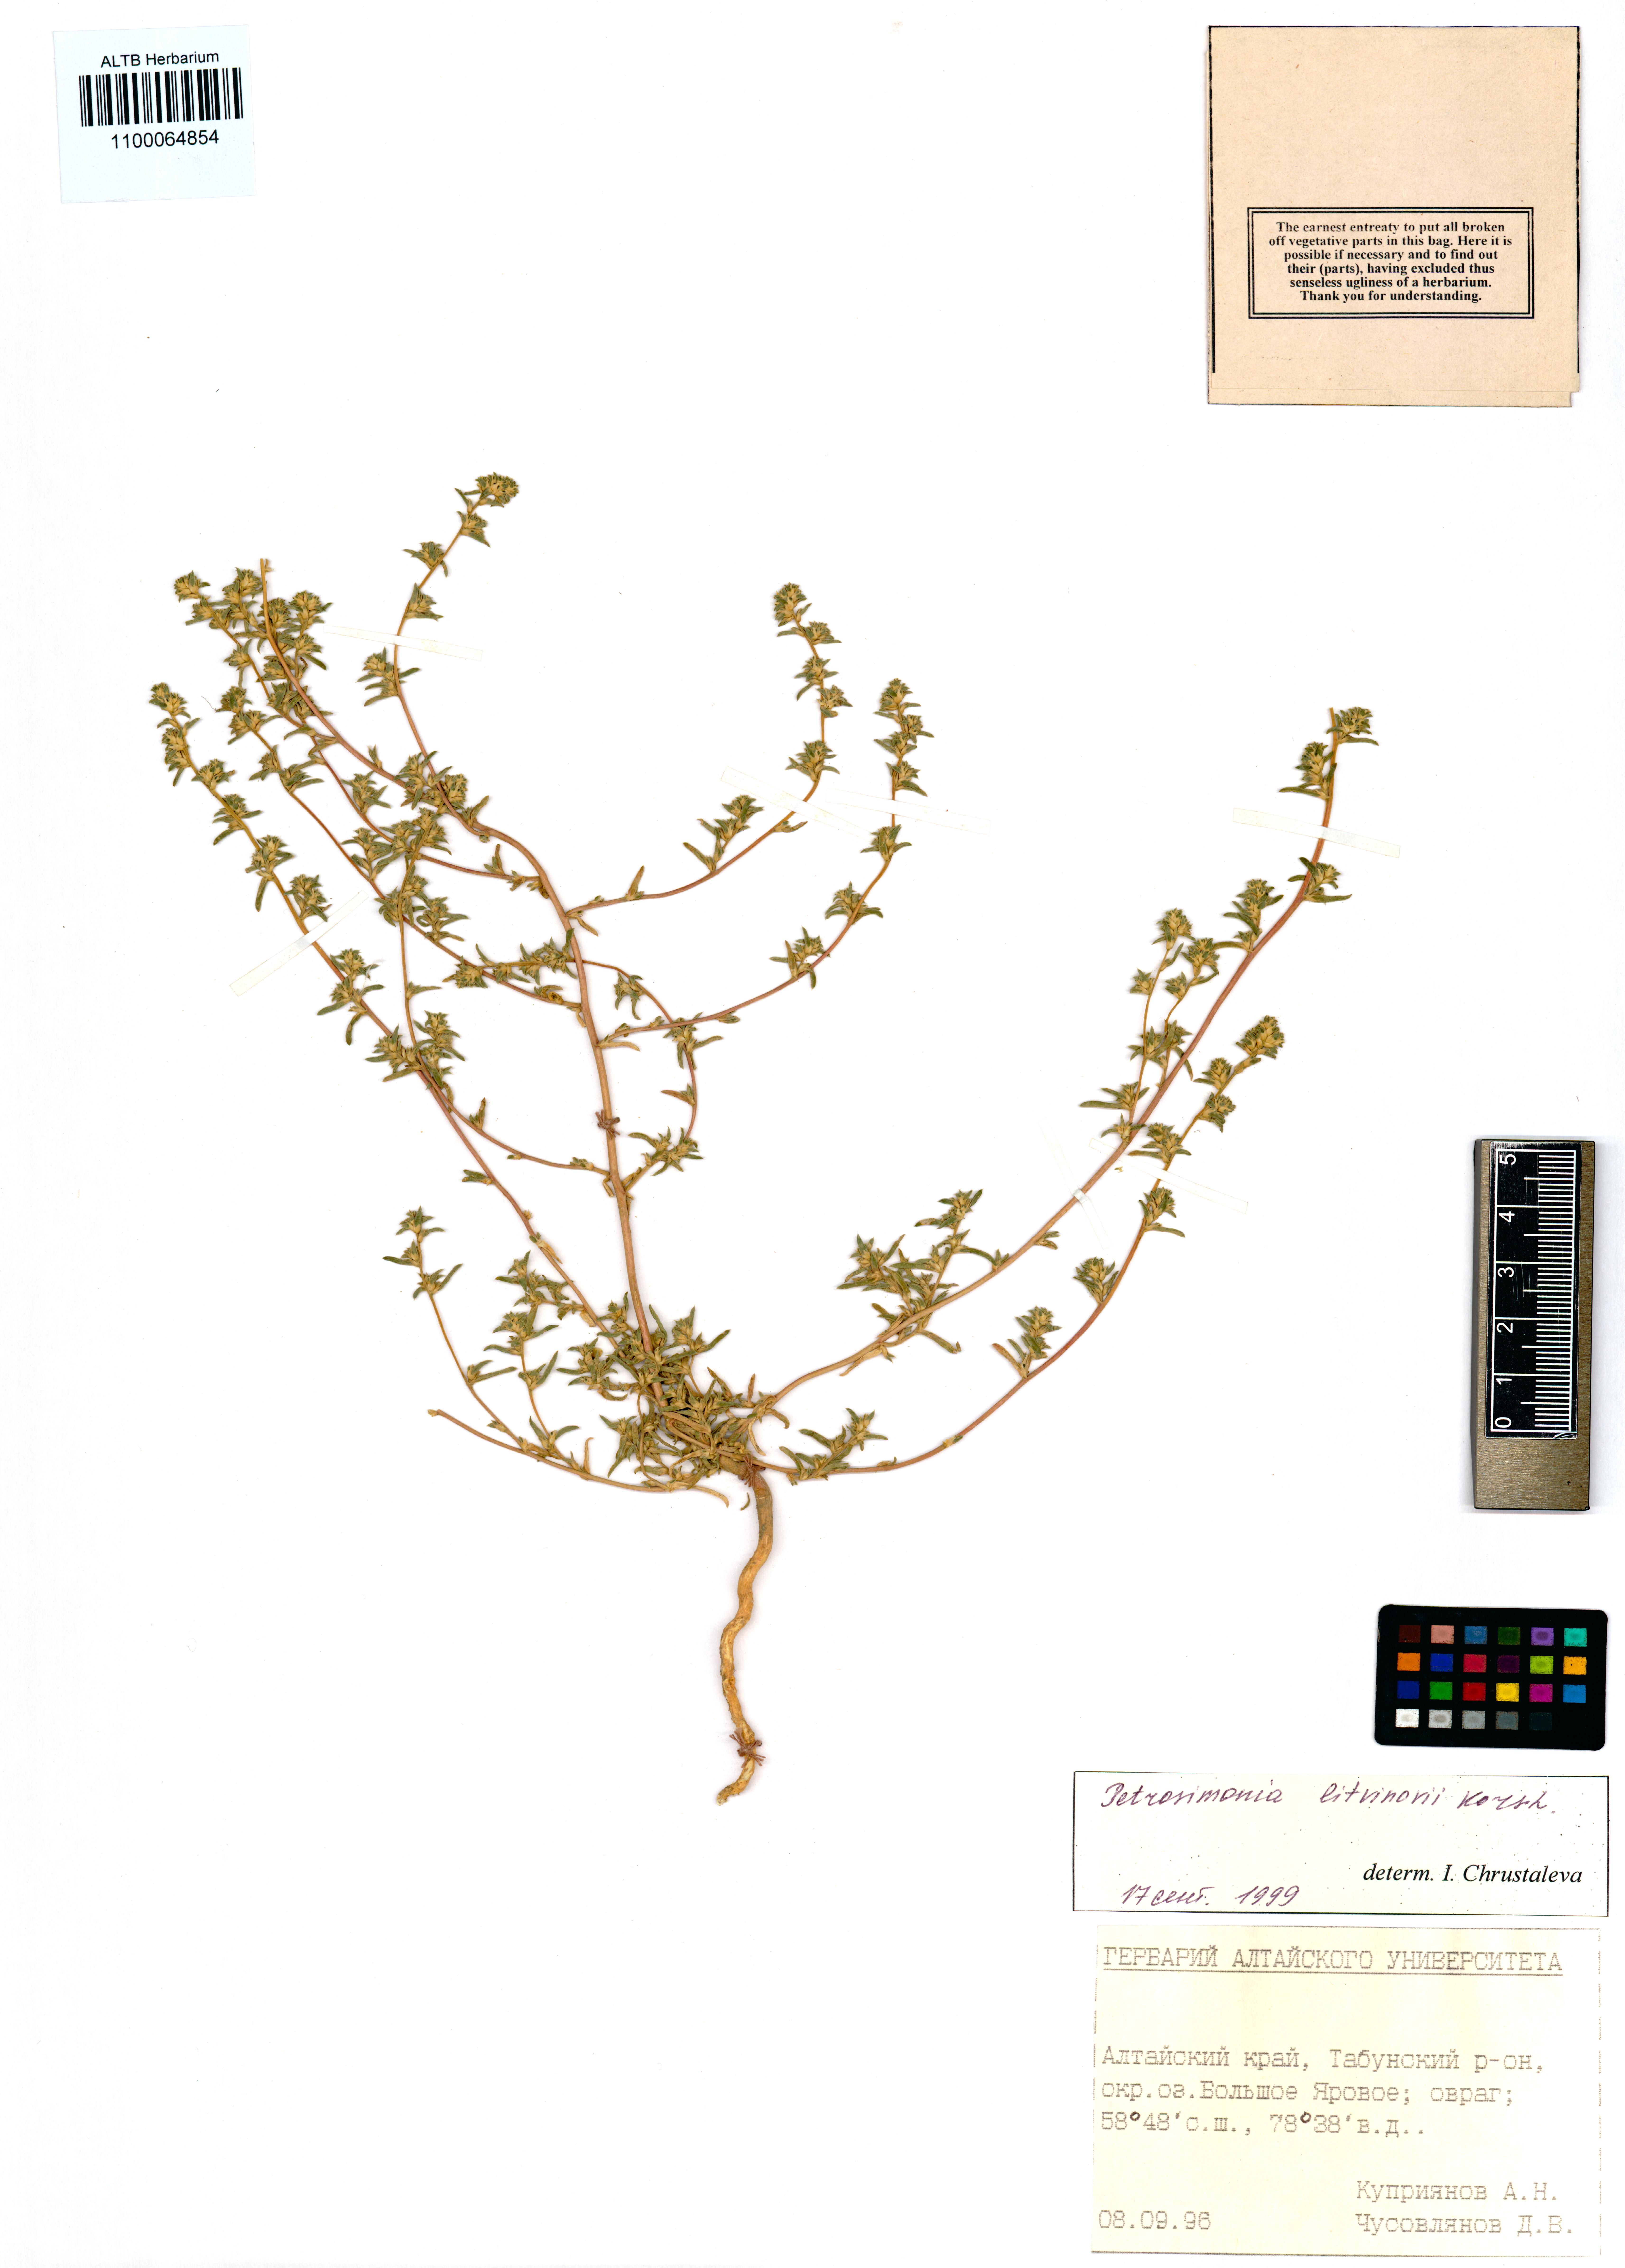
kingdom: Plantae
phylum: Tracheophyta
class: Magnoliopsida
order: Caryophyllales
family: Amaranthaceae
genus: Petrosimonia
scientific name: Petrosimonia litvinowi
